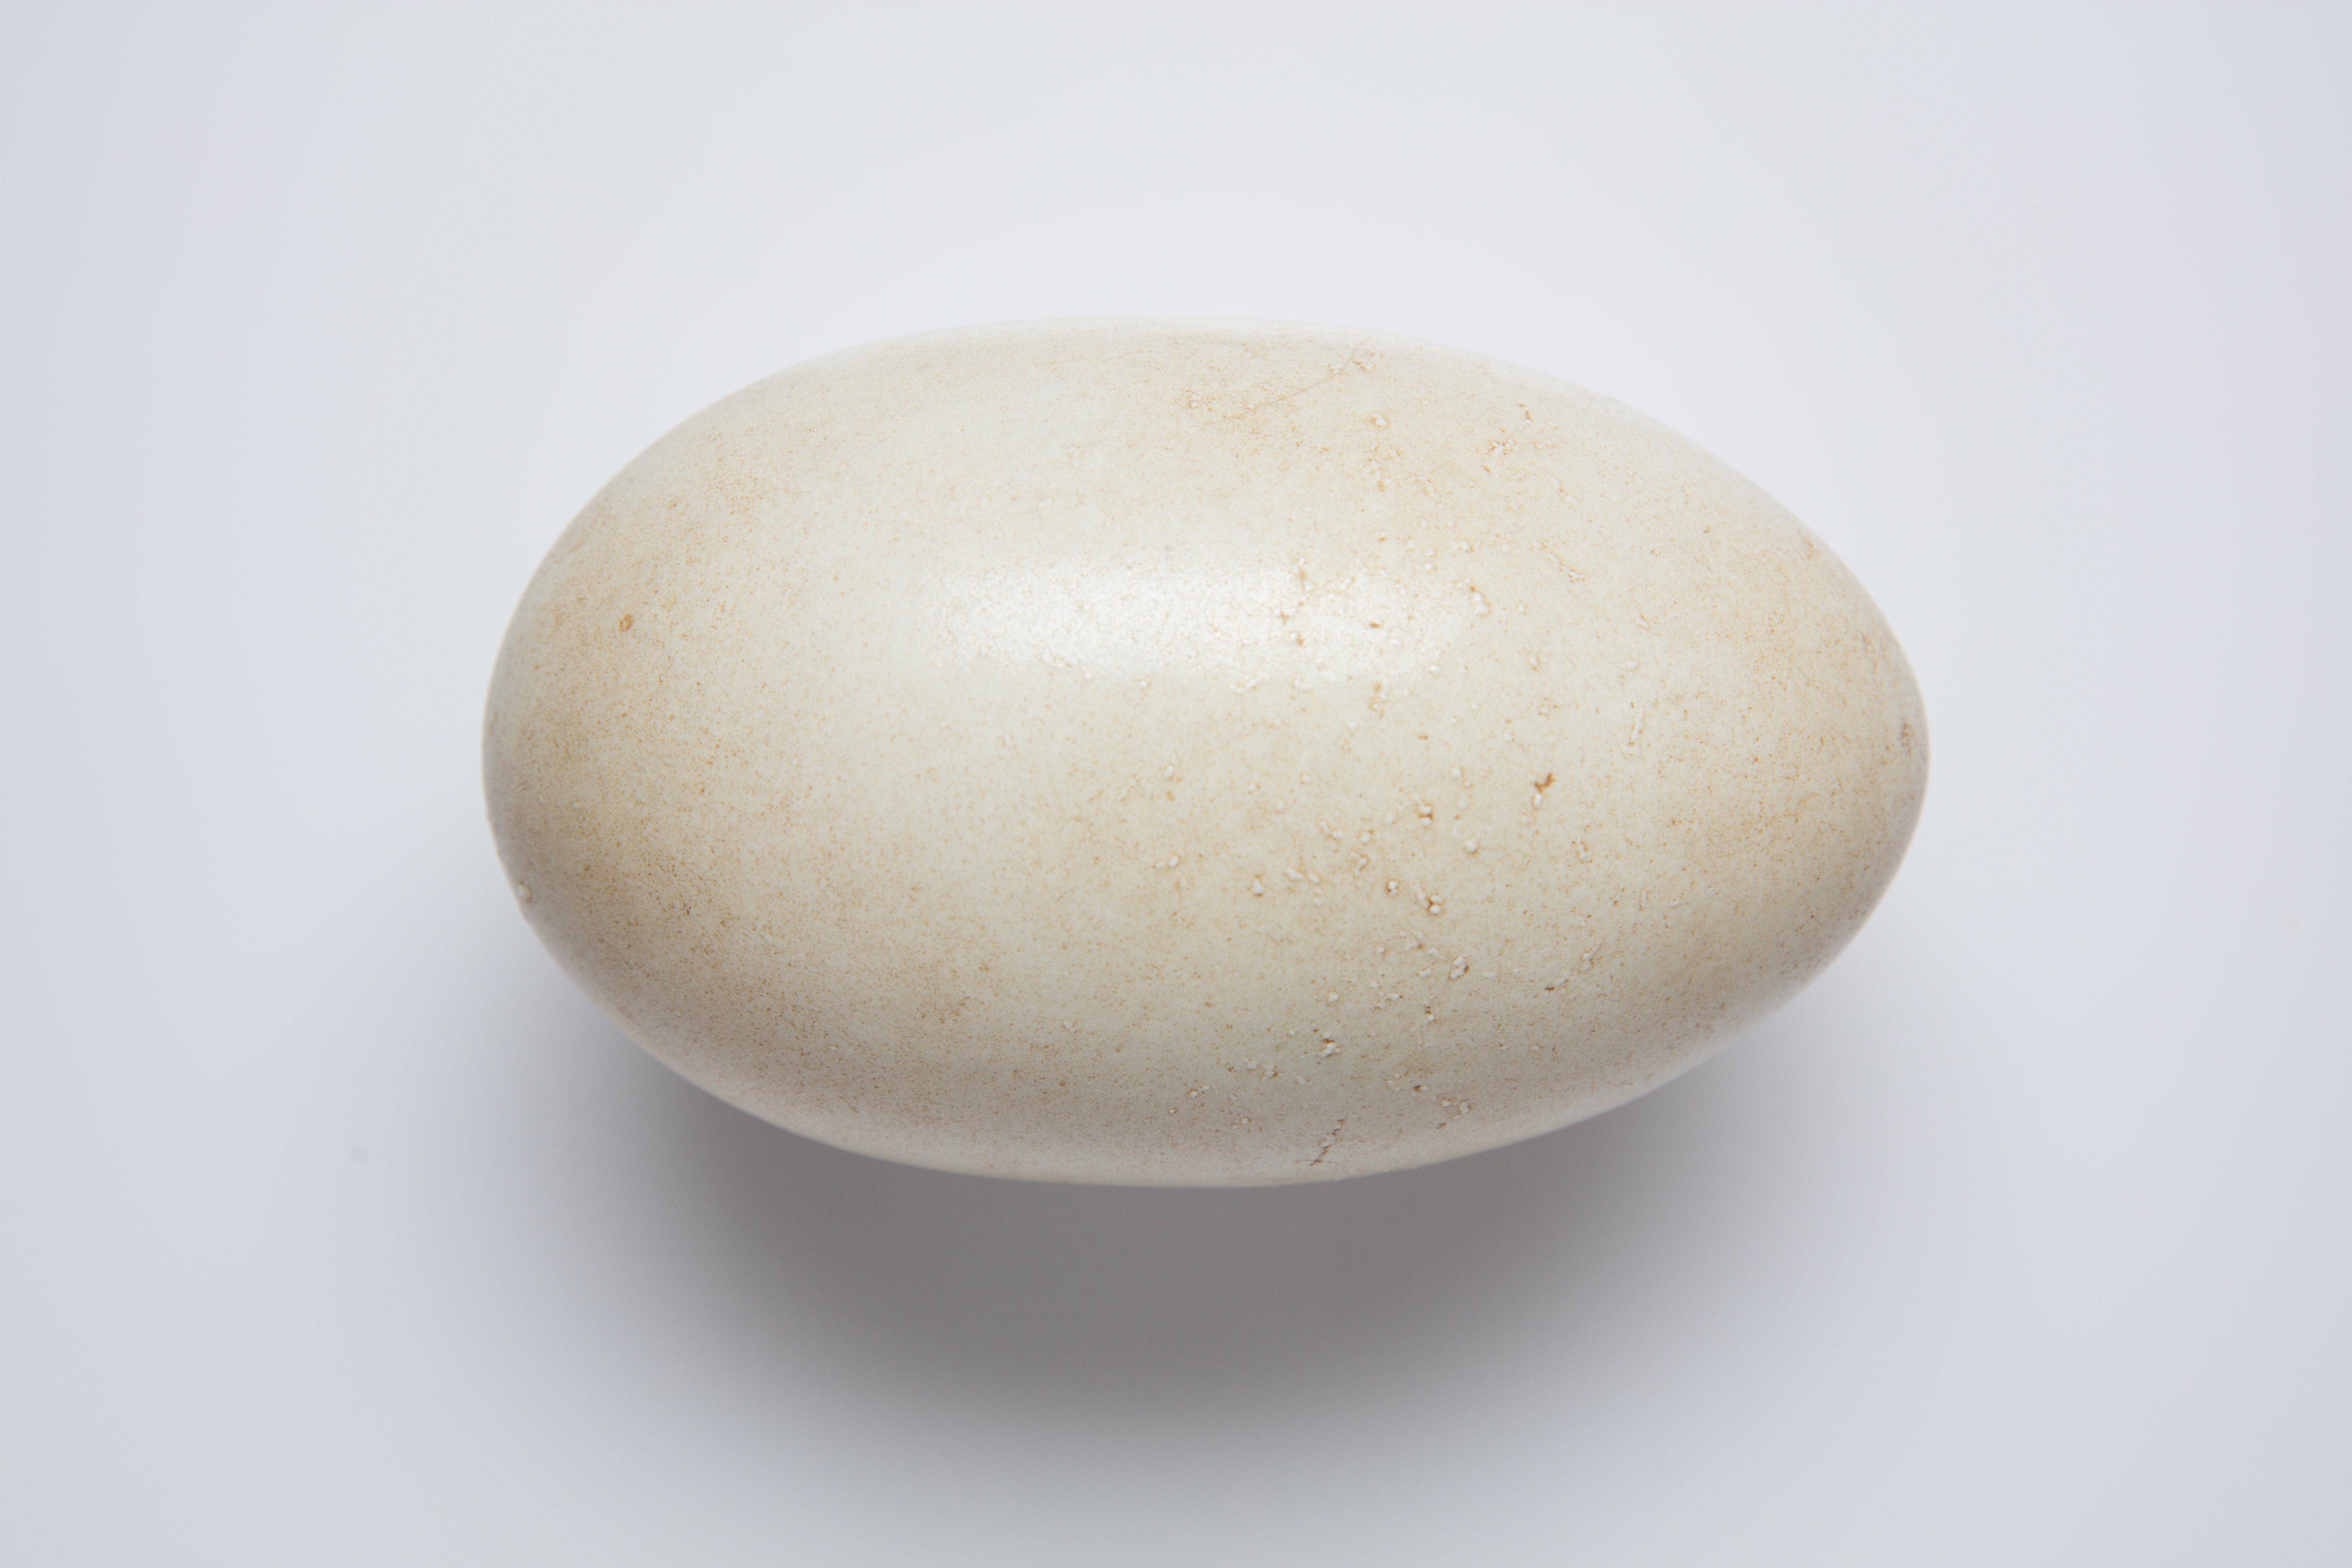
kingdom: Animalia
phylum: Chordata
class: Aves
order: Apterygiformes
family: Apterygidae
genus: Apteryx
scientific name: Apteryx mantelli
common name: North island brown kiwi
